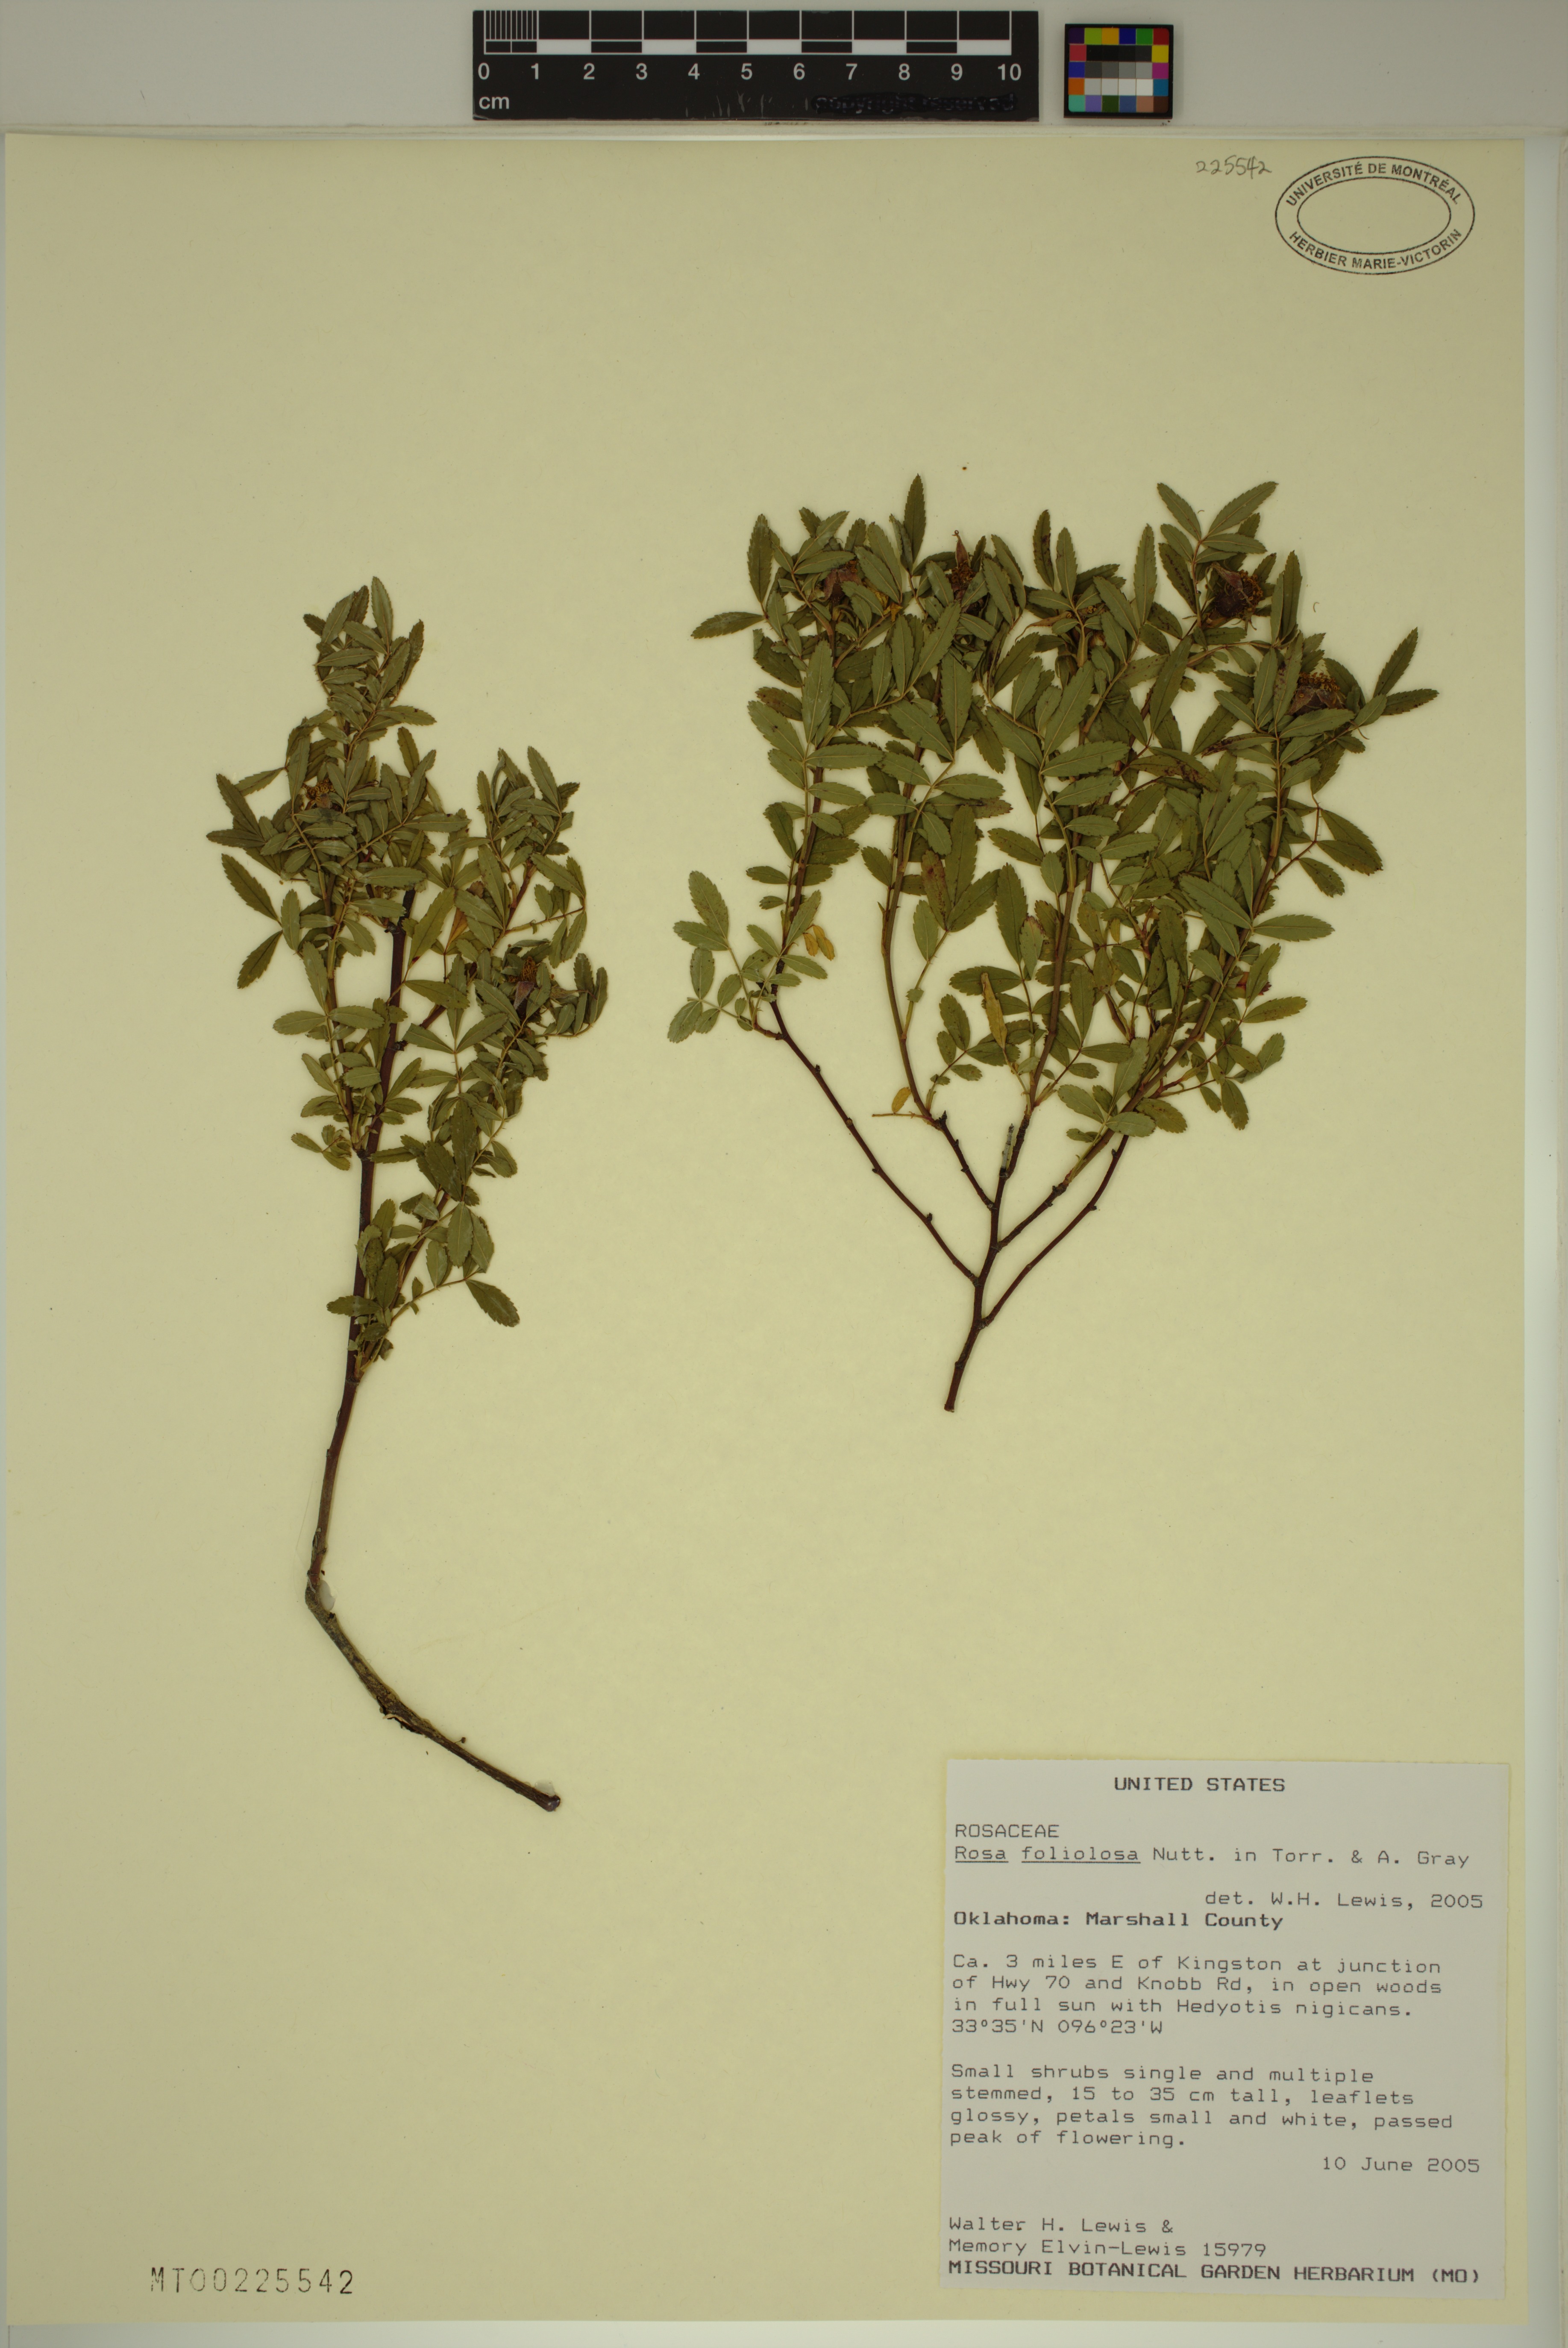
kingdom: Plantae
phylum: Tracheophyta
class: Magnoliopsida
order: Rosales
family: Rosaceae
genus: Rosa
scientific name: Rosa foliolosa
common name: White prairie rose
